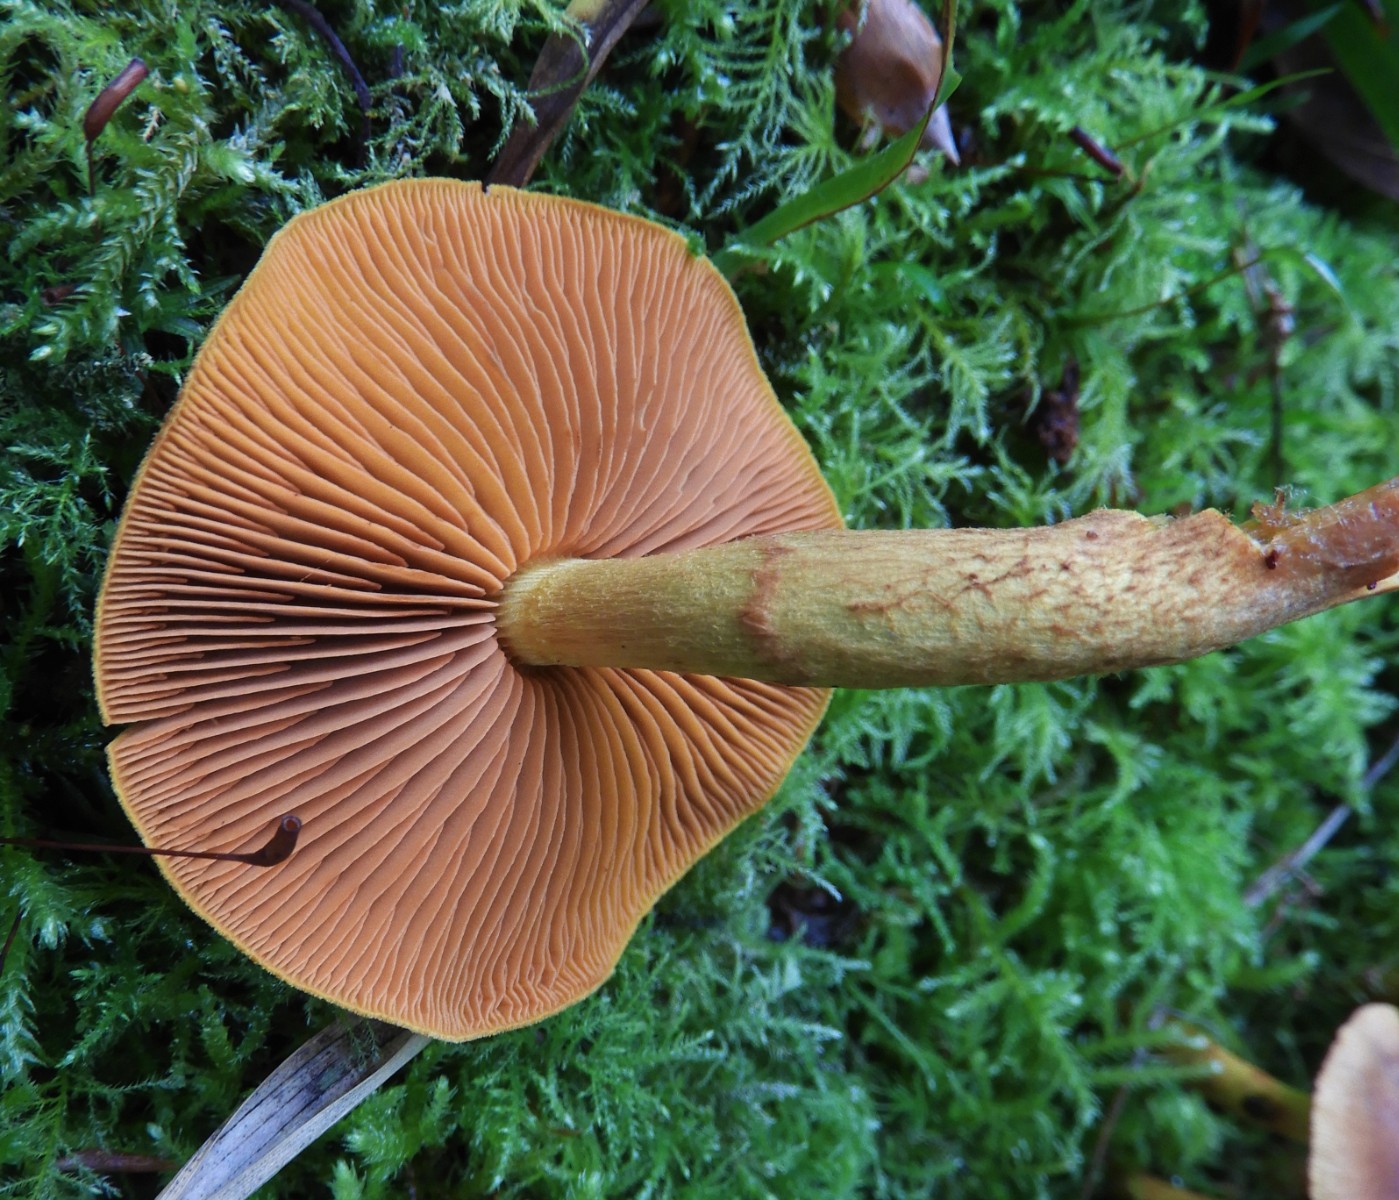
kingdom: Fungi
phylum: Basidiomycota
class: Agaricomycetes
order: Agaricales
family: Cortinariaceae
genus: Cortinarius
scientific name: Cortinarius
